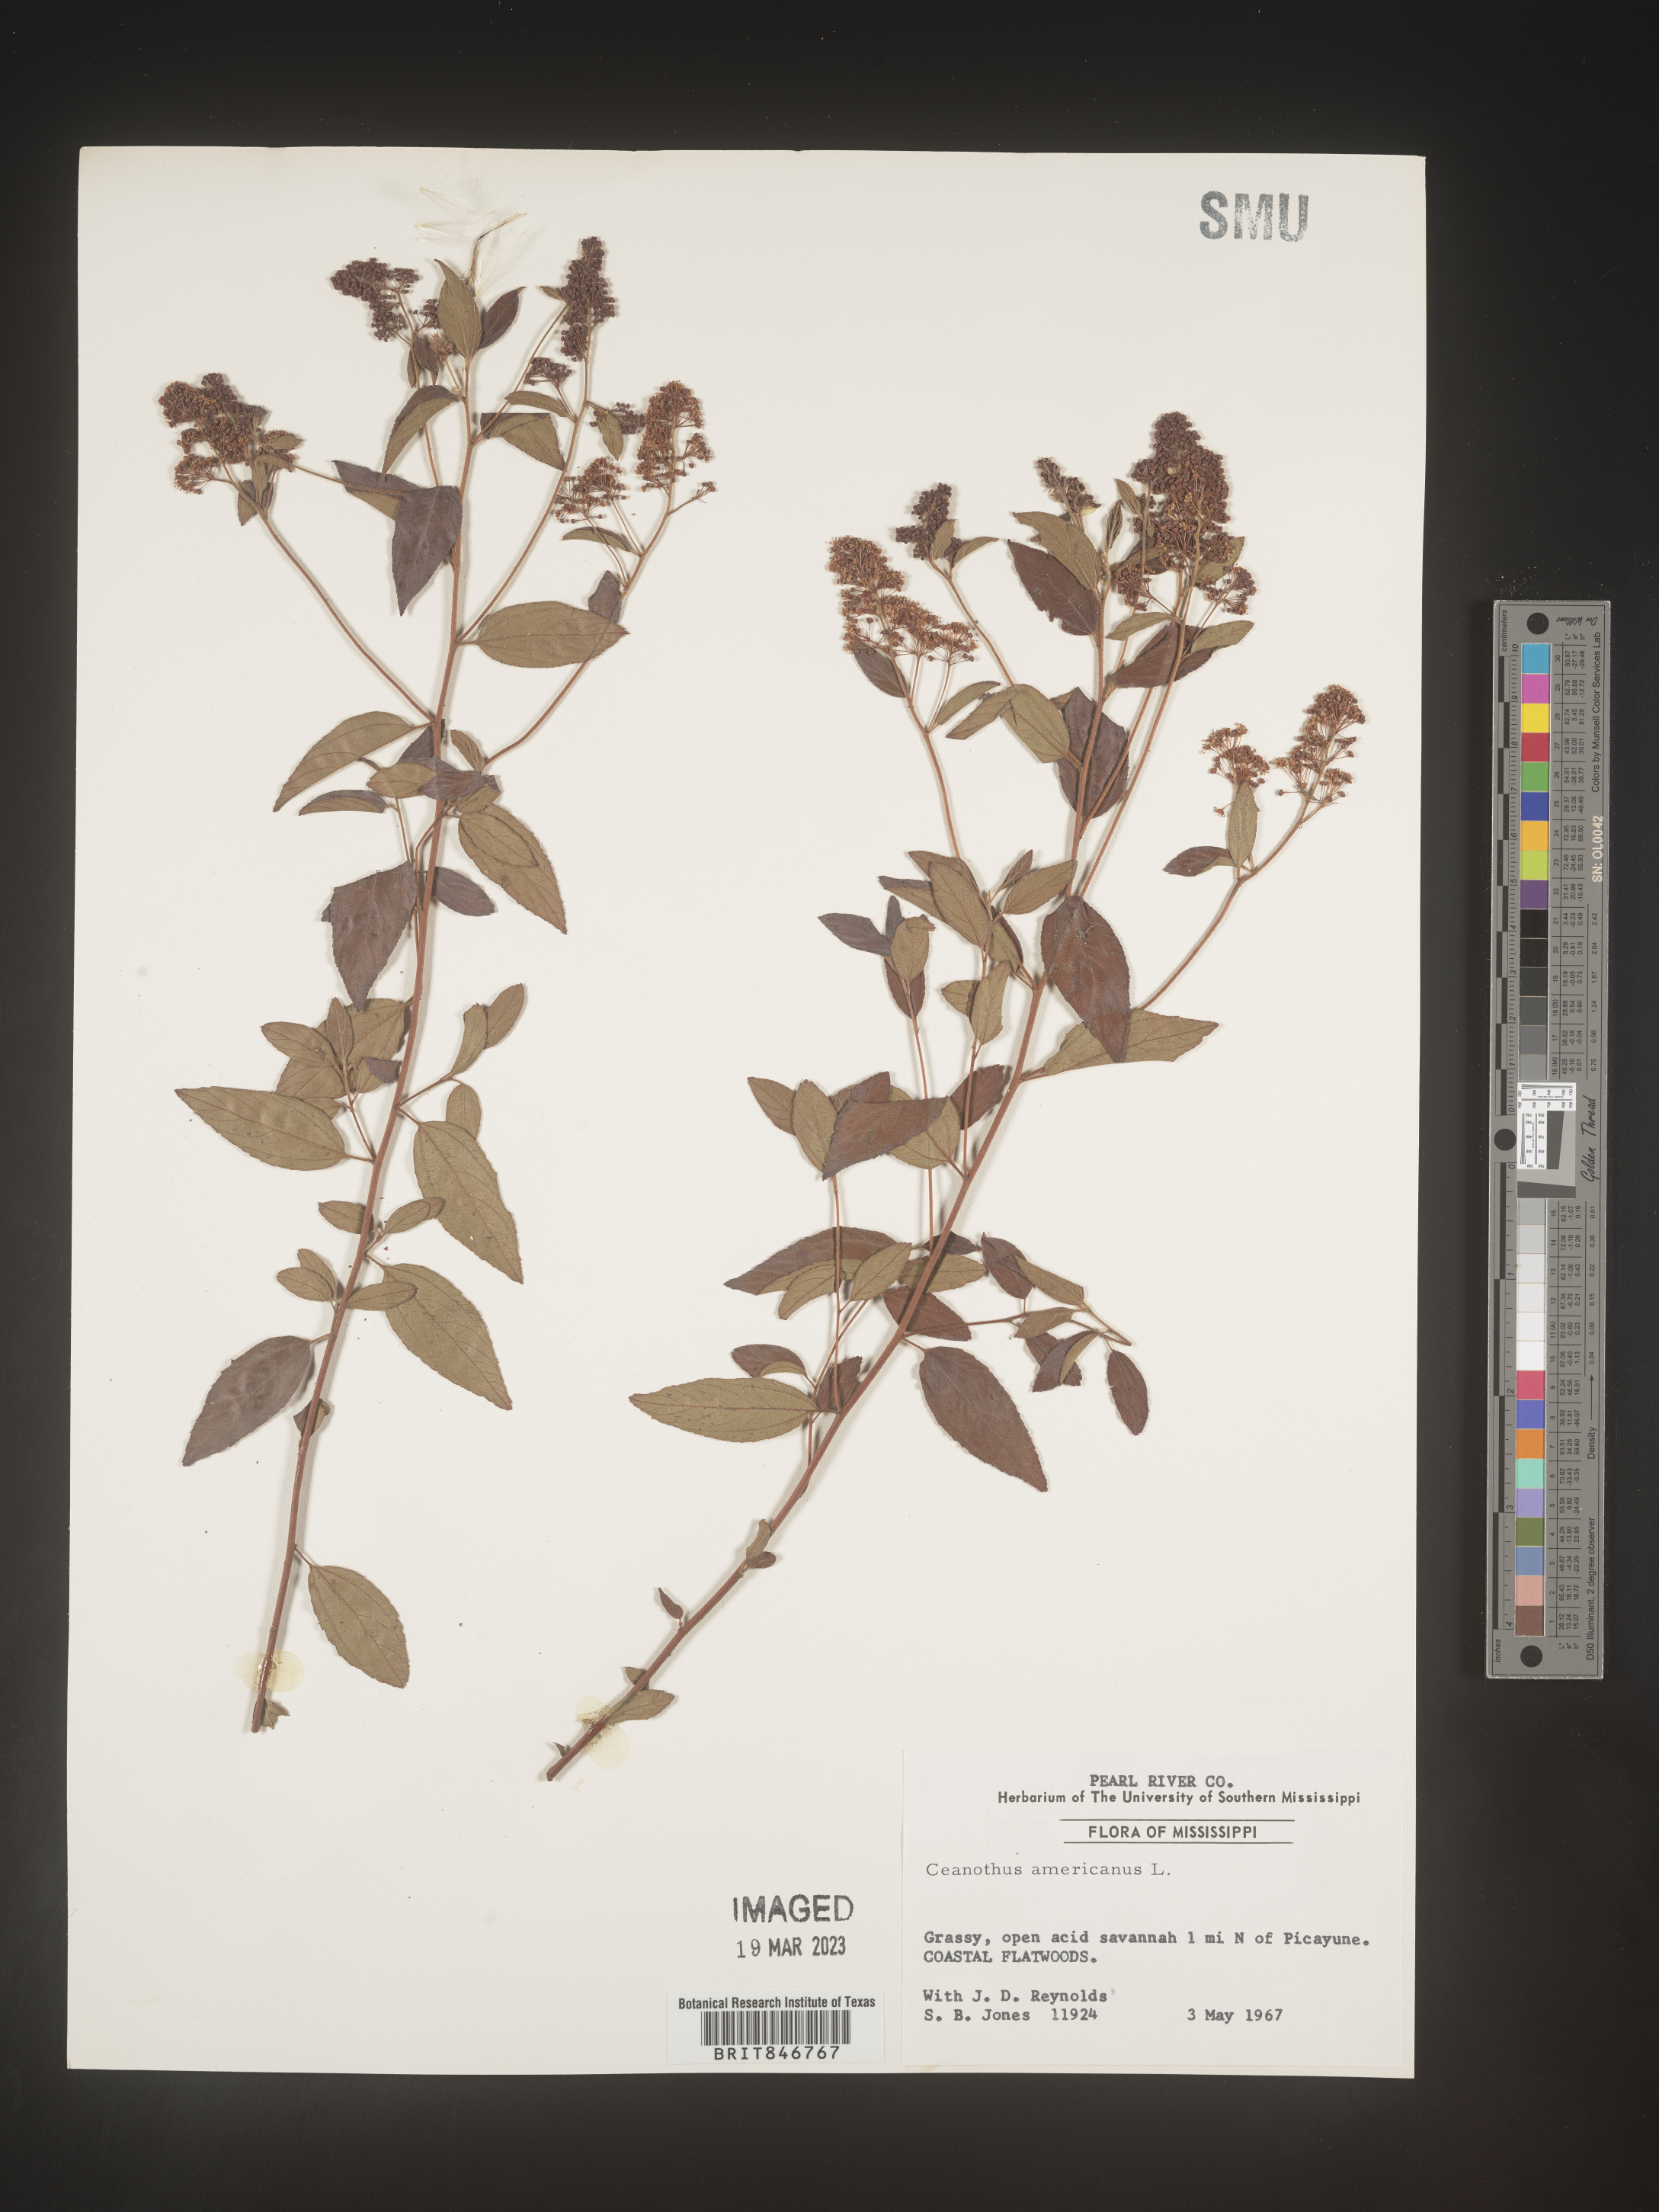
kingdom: Plantae
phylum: Tracheophyta
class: Magnoliopsida
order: Rosales
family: Rhamnaceae
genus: Ceanothus
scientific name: Ceanothus americanus
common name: Redroot
